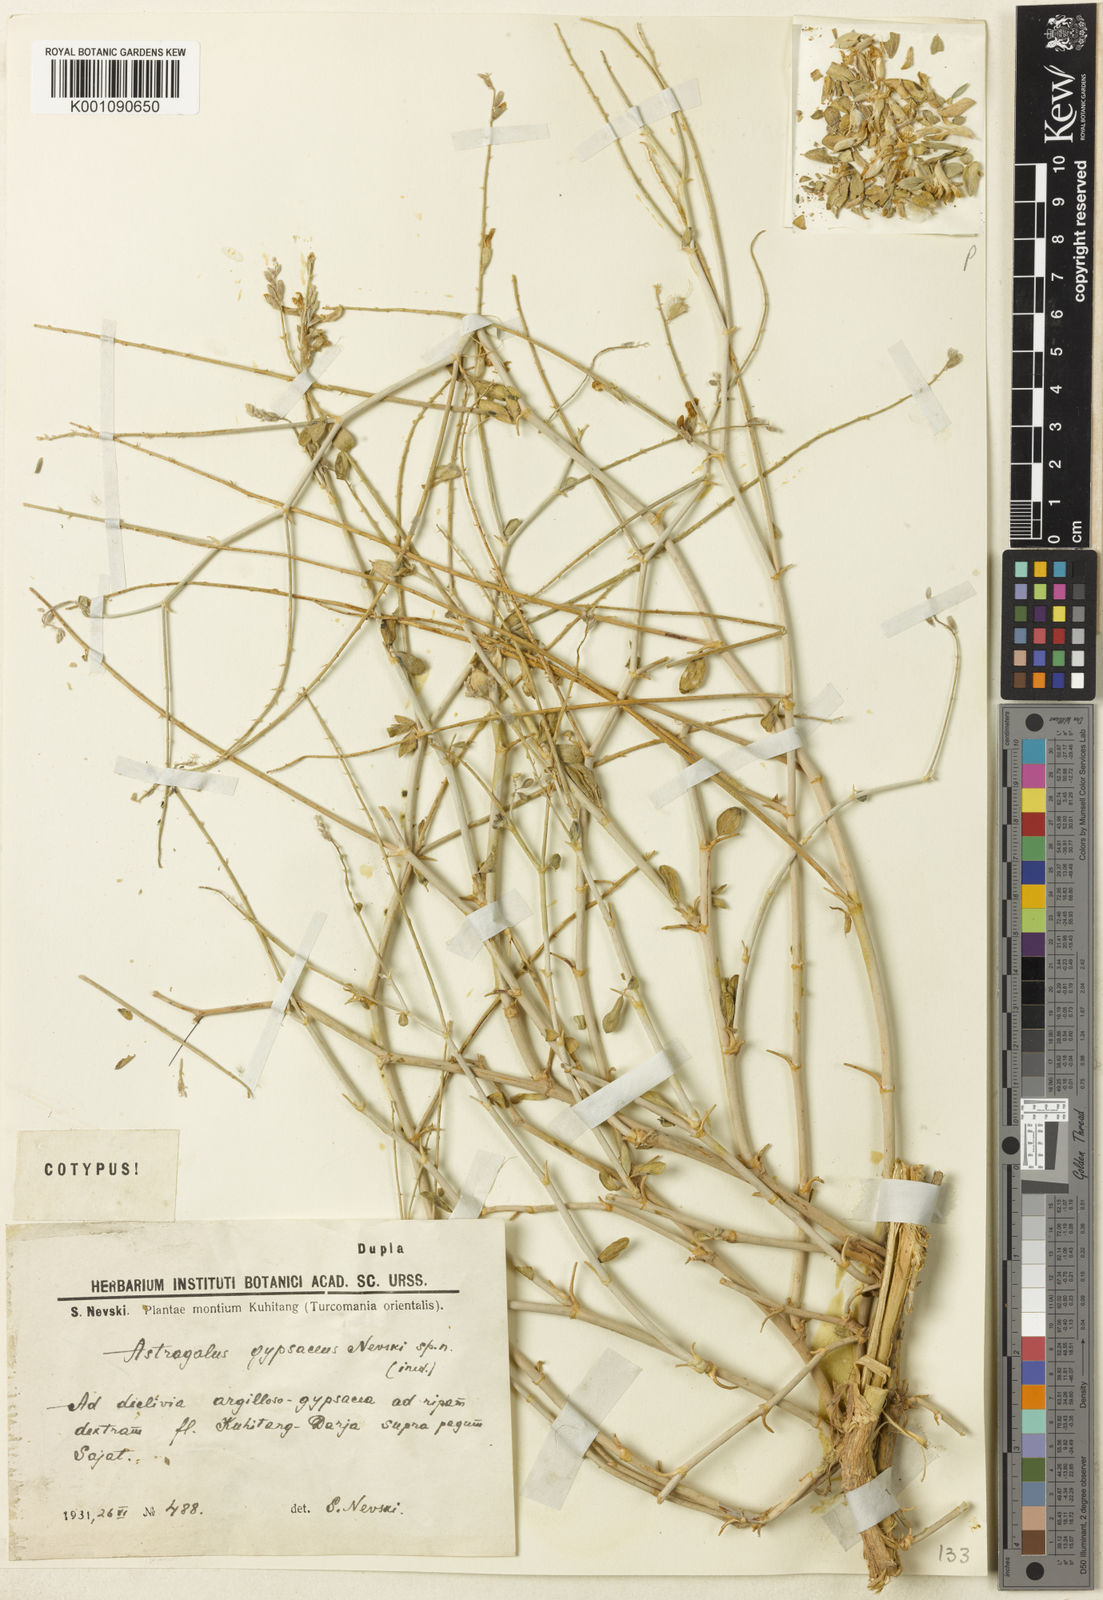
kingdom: Plantae
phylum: Tracheophyta
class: Magnoliopsida
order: Fabales
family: Fabaceae
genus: Astragalus
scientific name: Astragalus
